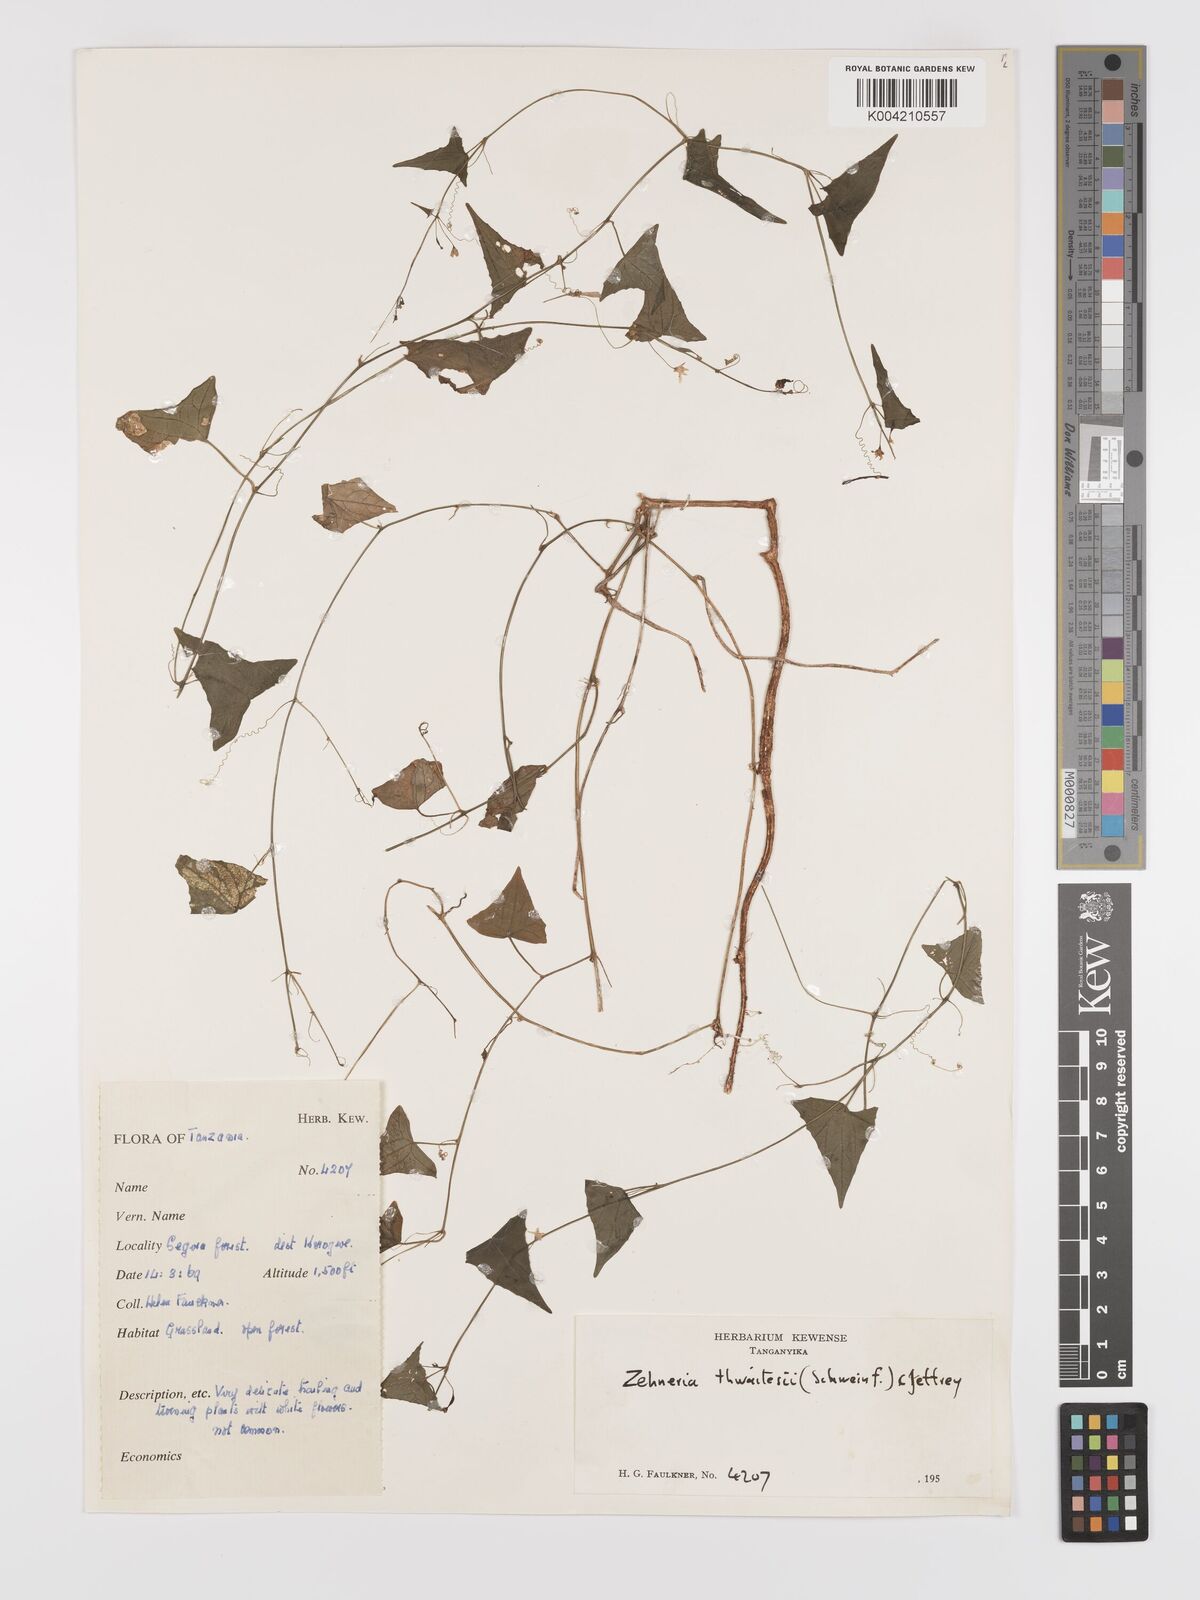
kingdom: Plantae
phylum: Tracheophyta
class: Magnoliopsida
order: Cucurbitales
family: Cucurbitaceae
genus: Zehneria
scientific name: Zehneria thwaitesii
